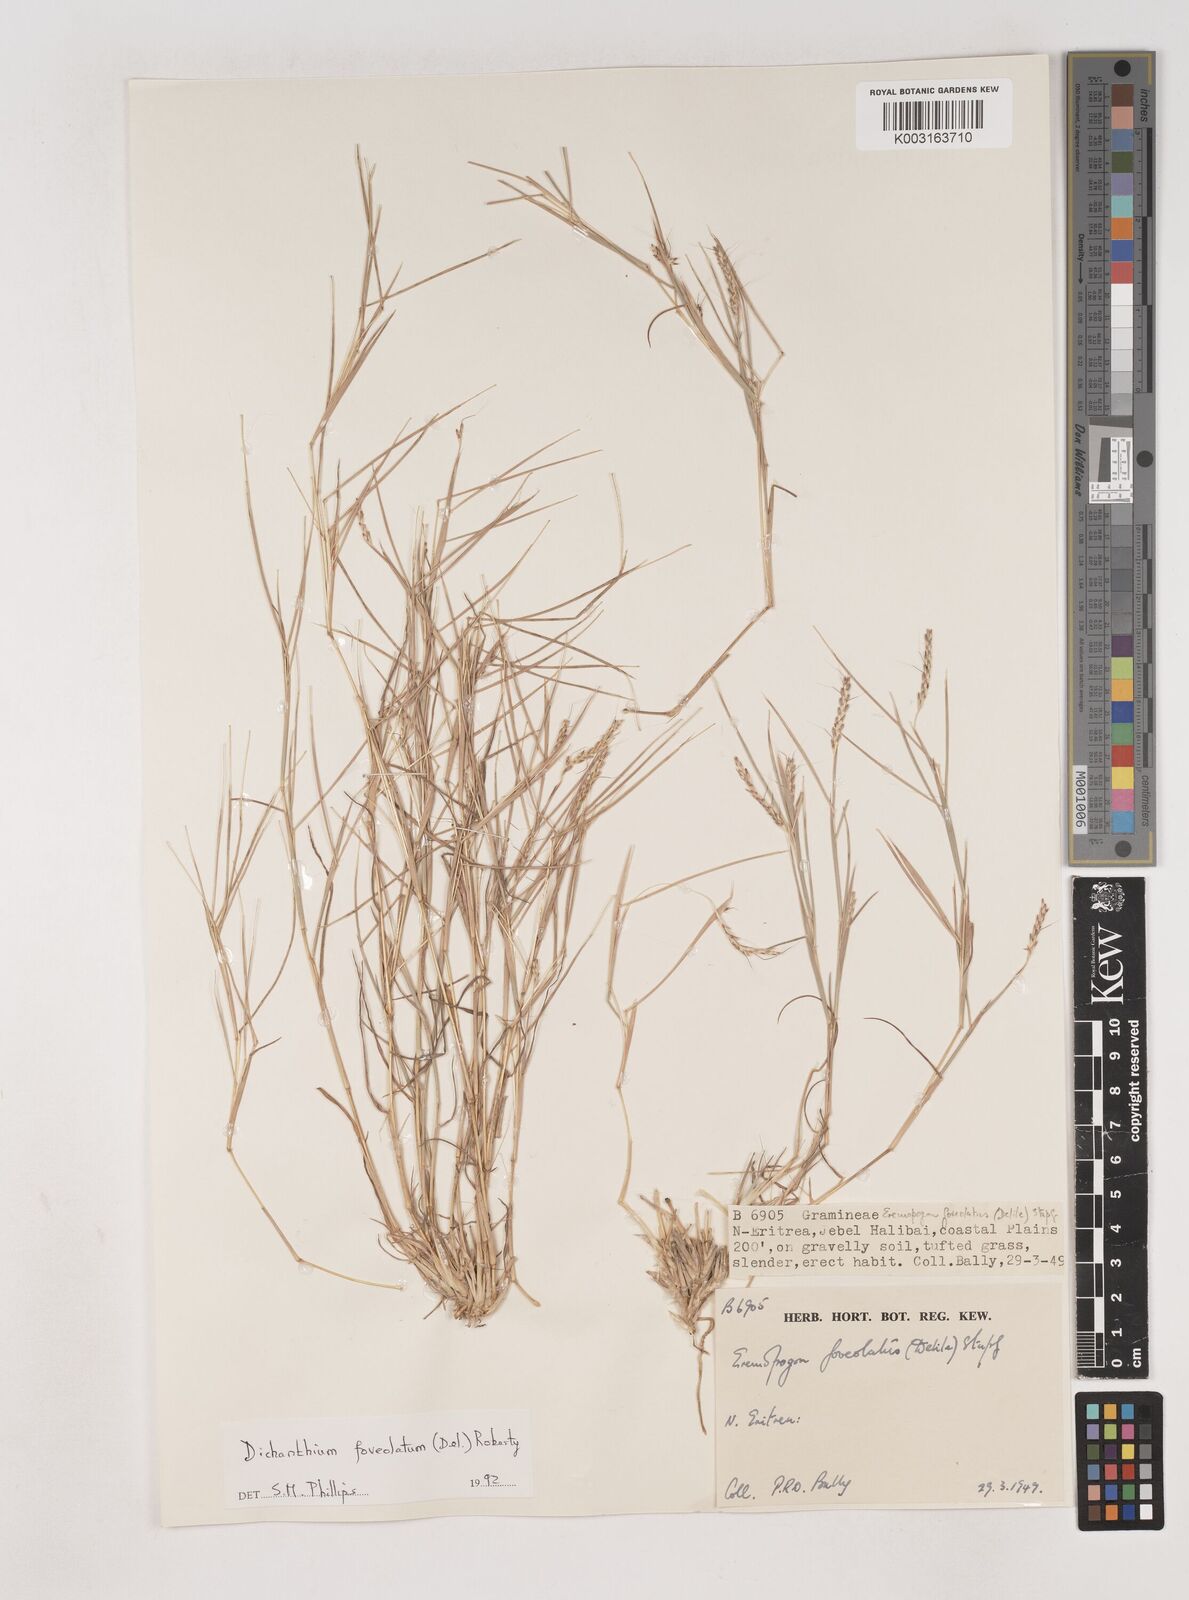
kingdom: Plantae
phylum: Tracheophyta
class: Liliopsida
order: Poales
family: Poaceae
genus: Dichanthium
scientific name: Dichanthium foveolatum
